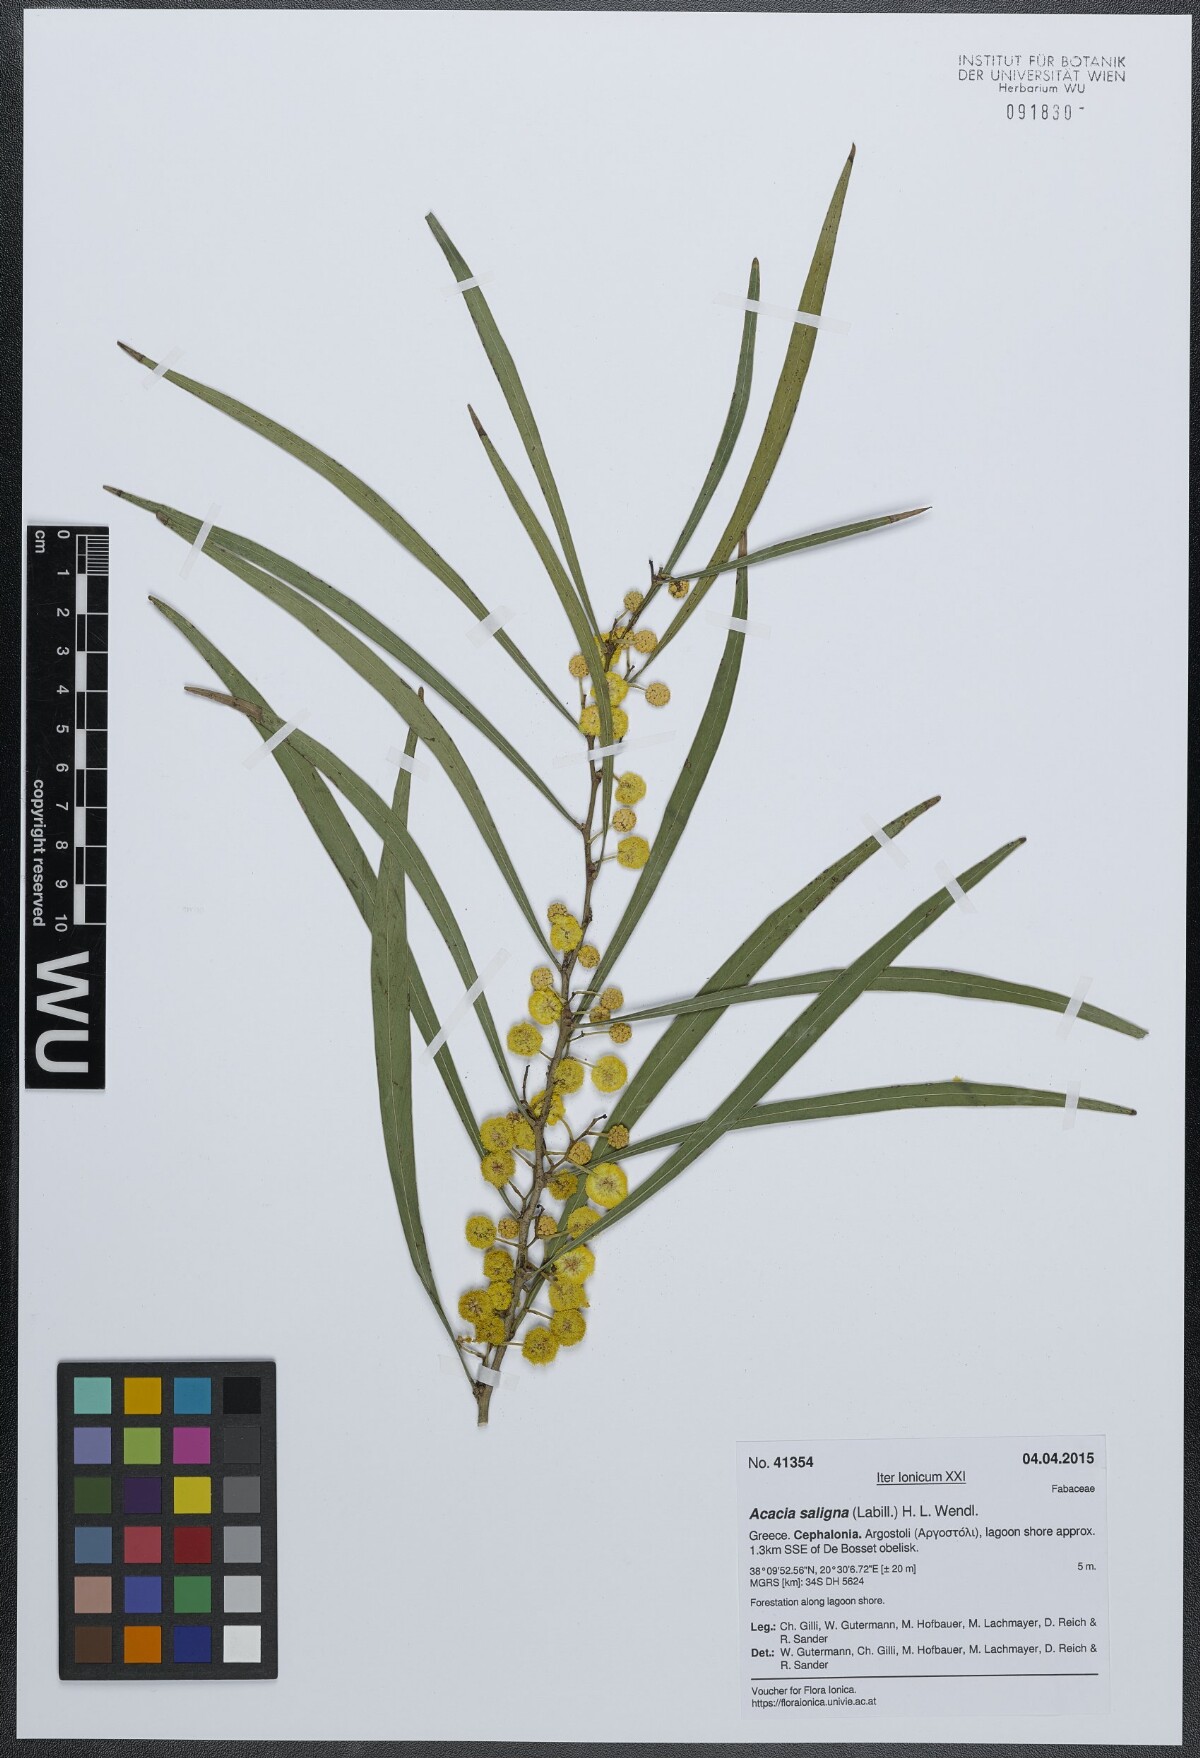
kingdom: Plantae
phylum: Tracheophyta
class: Magnoliopsida
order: Fabales
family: Fabaceae
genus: Acacia
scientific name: Acacia saligna
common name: Orange wattle
